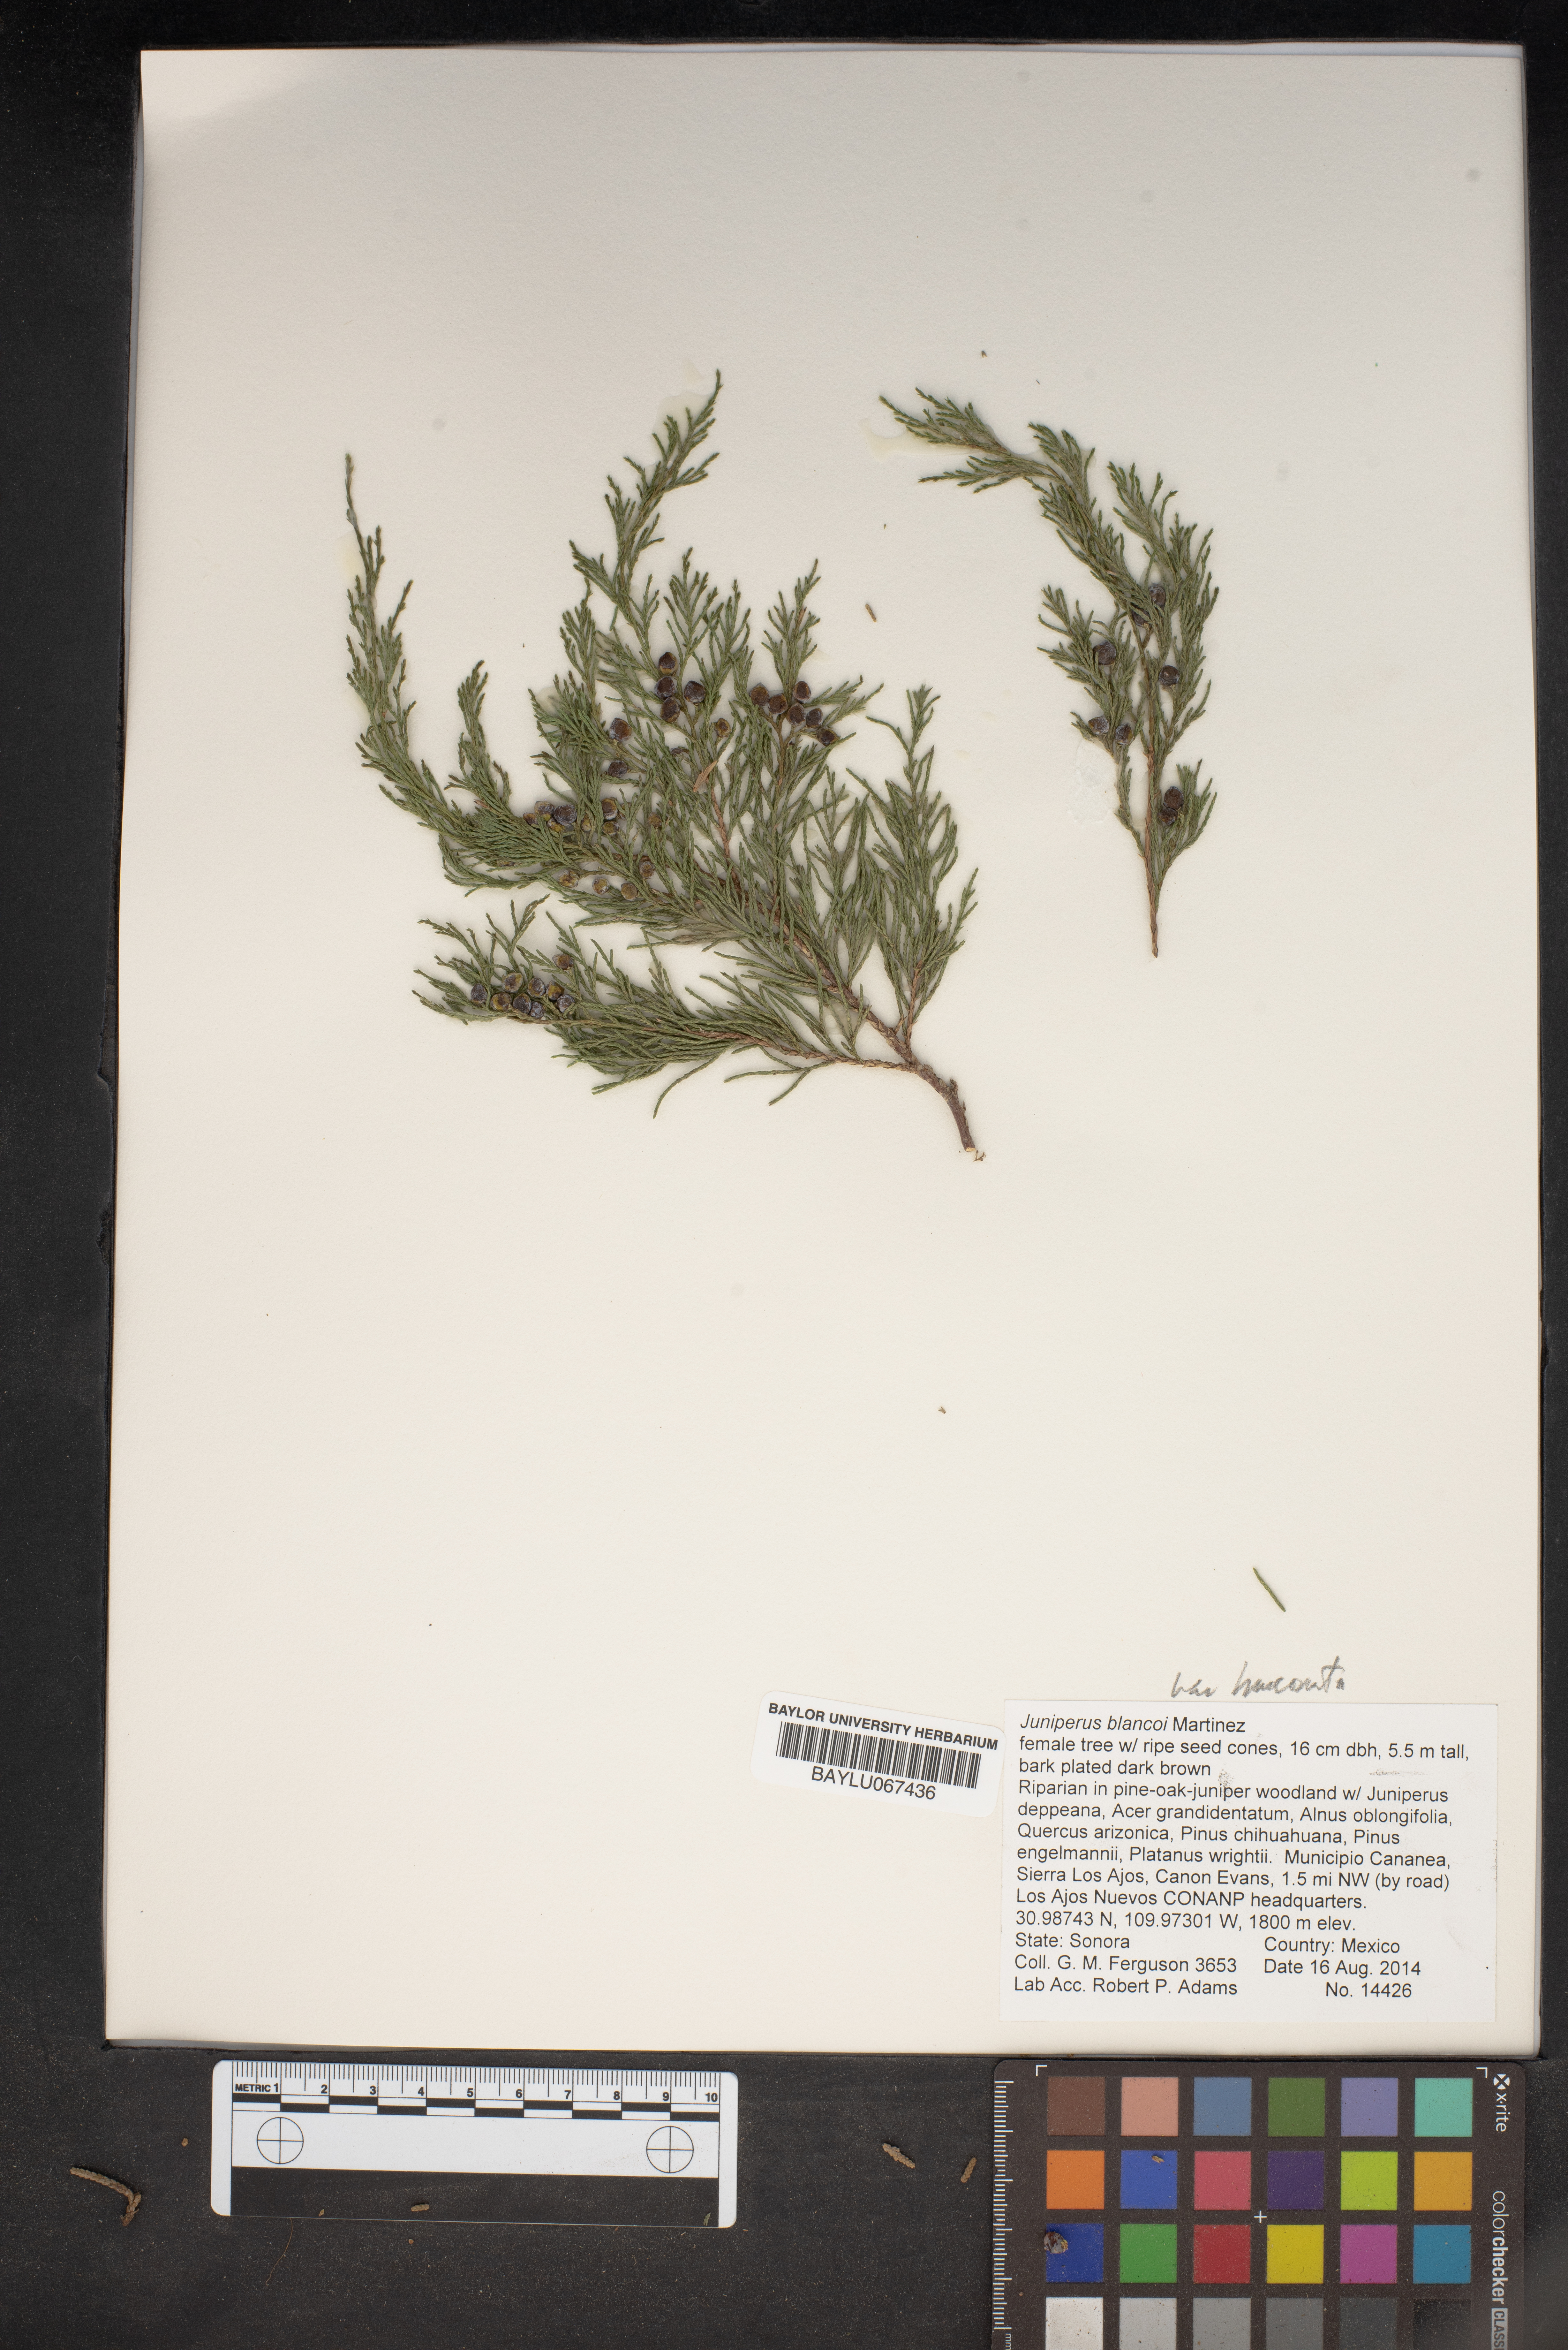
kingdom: Plantae
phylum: Tracheophyta
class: Pinopsida
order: Pinales
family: Cupressaceae
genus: Juniperus
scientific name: Juniperus blancoi
